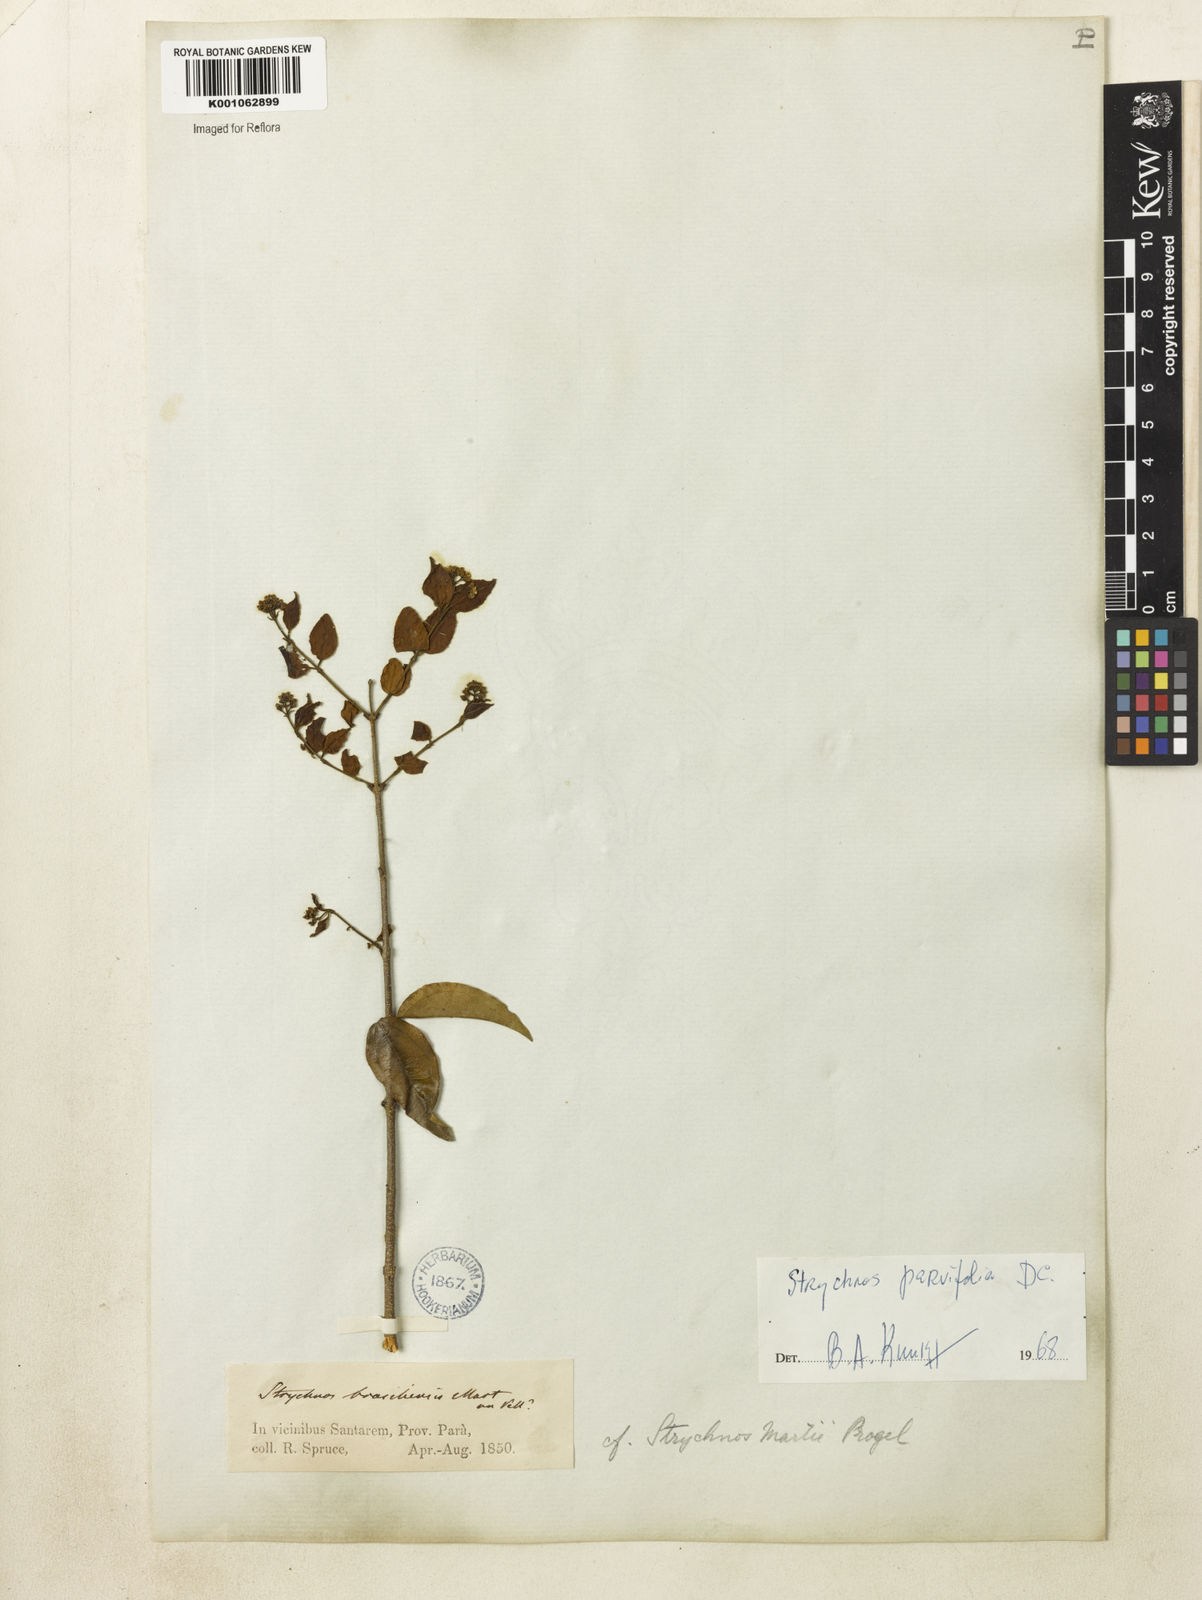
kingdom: Plantae
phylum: Tracheophyta
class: Magnoliopsida
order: Gentianales
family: Loganiaceae
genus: Strychnos
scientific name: Strychnos parvifolia
